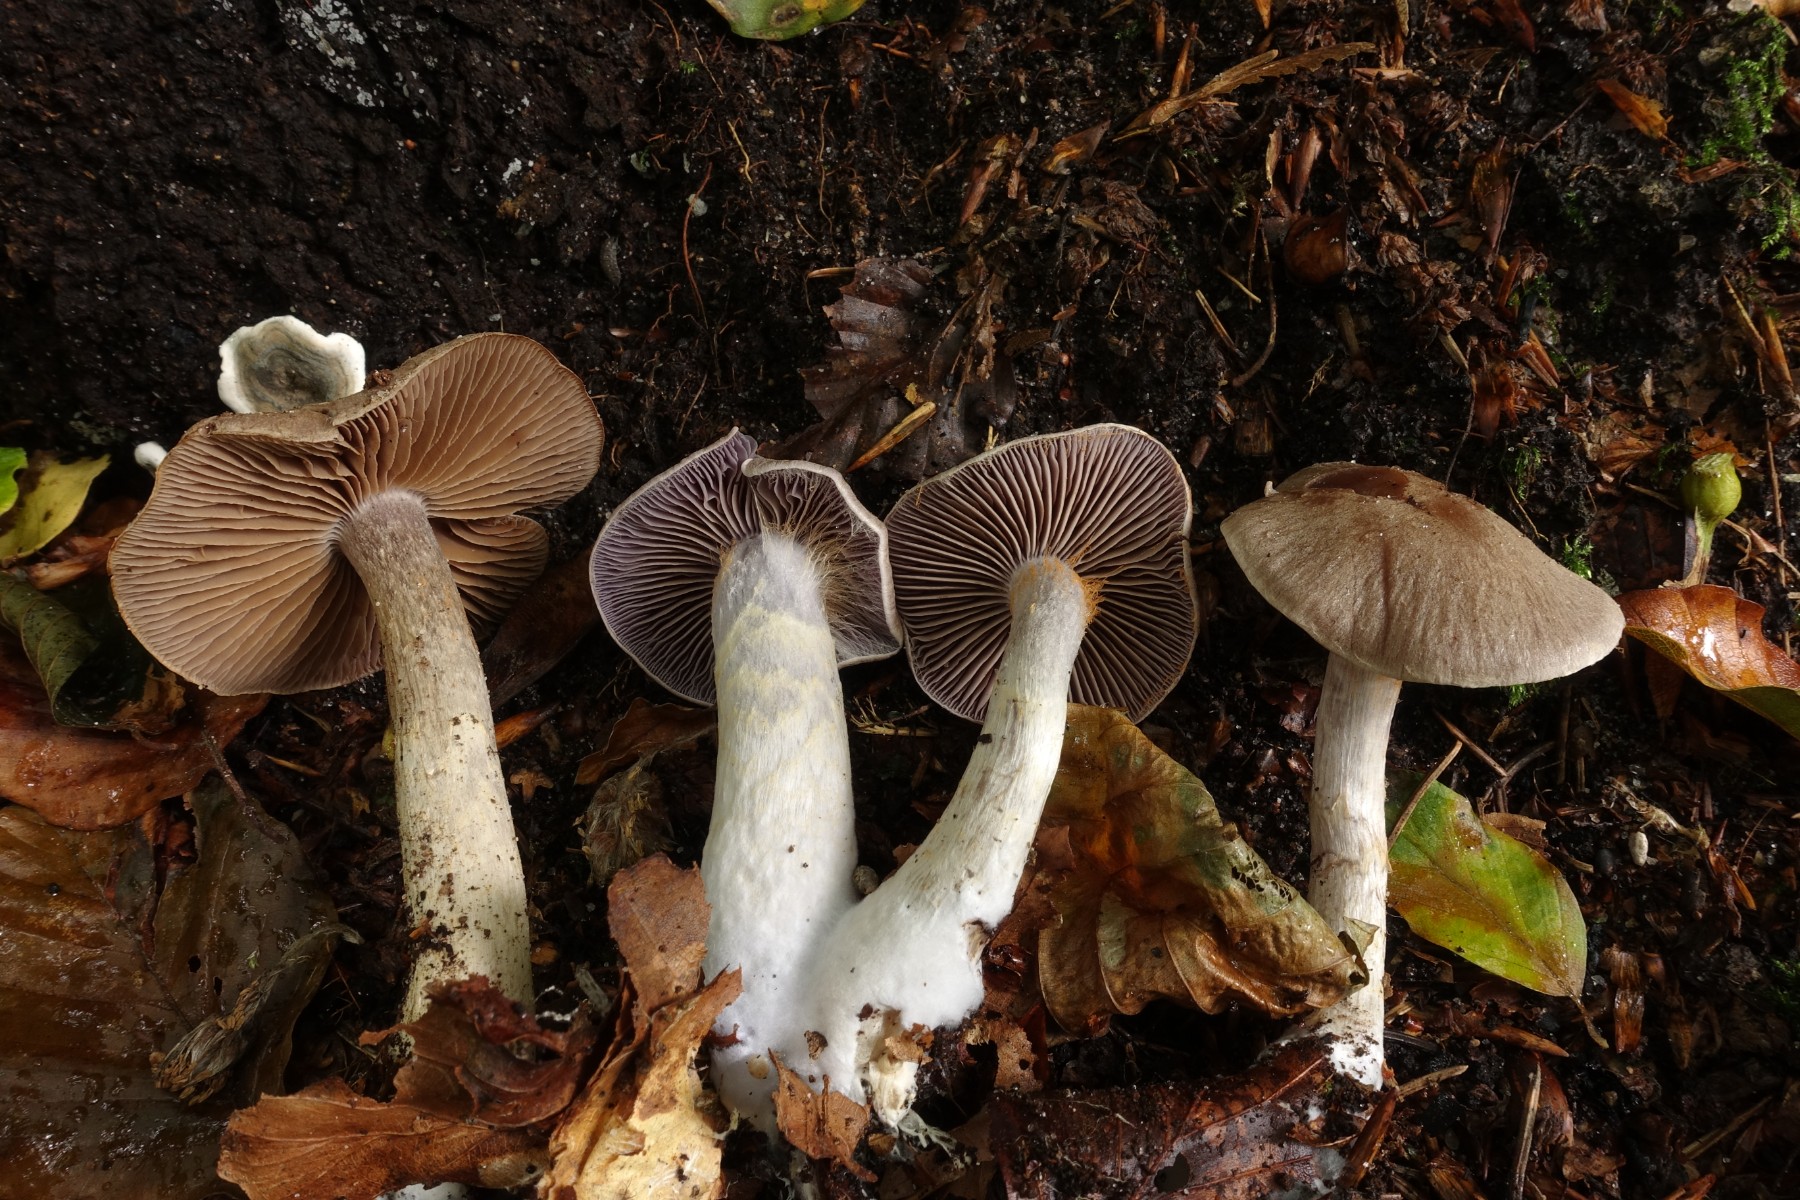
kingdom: Fungi
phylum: Basidiomycota
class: Agaricomycetes
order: Agaricales
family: Cortinariaceae
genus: Cortinarius
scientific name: Cortinarius
